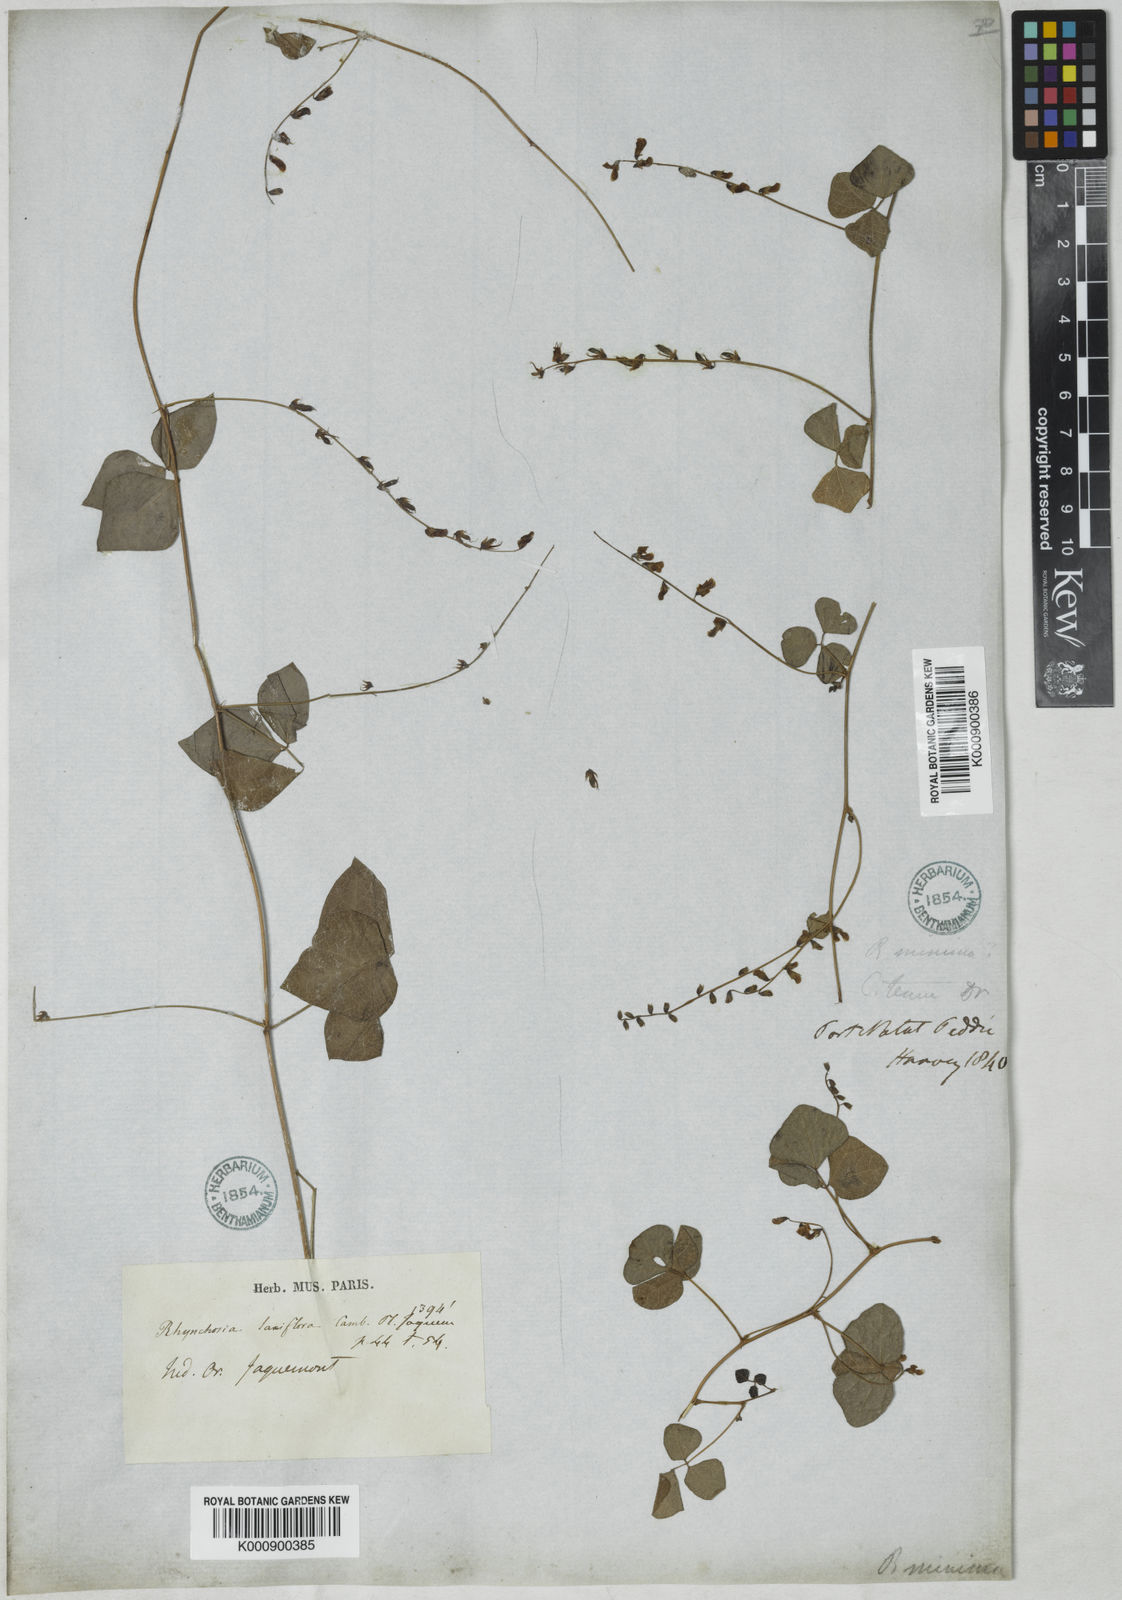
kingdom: Plantae
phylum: Tracheophyta
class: Magnoliopsida
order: Fabales
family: Fabaceae
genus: Rhynchosia
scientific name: Rhynchosia minima
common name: Least snoutbean
